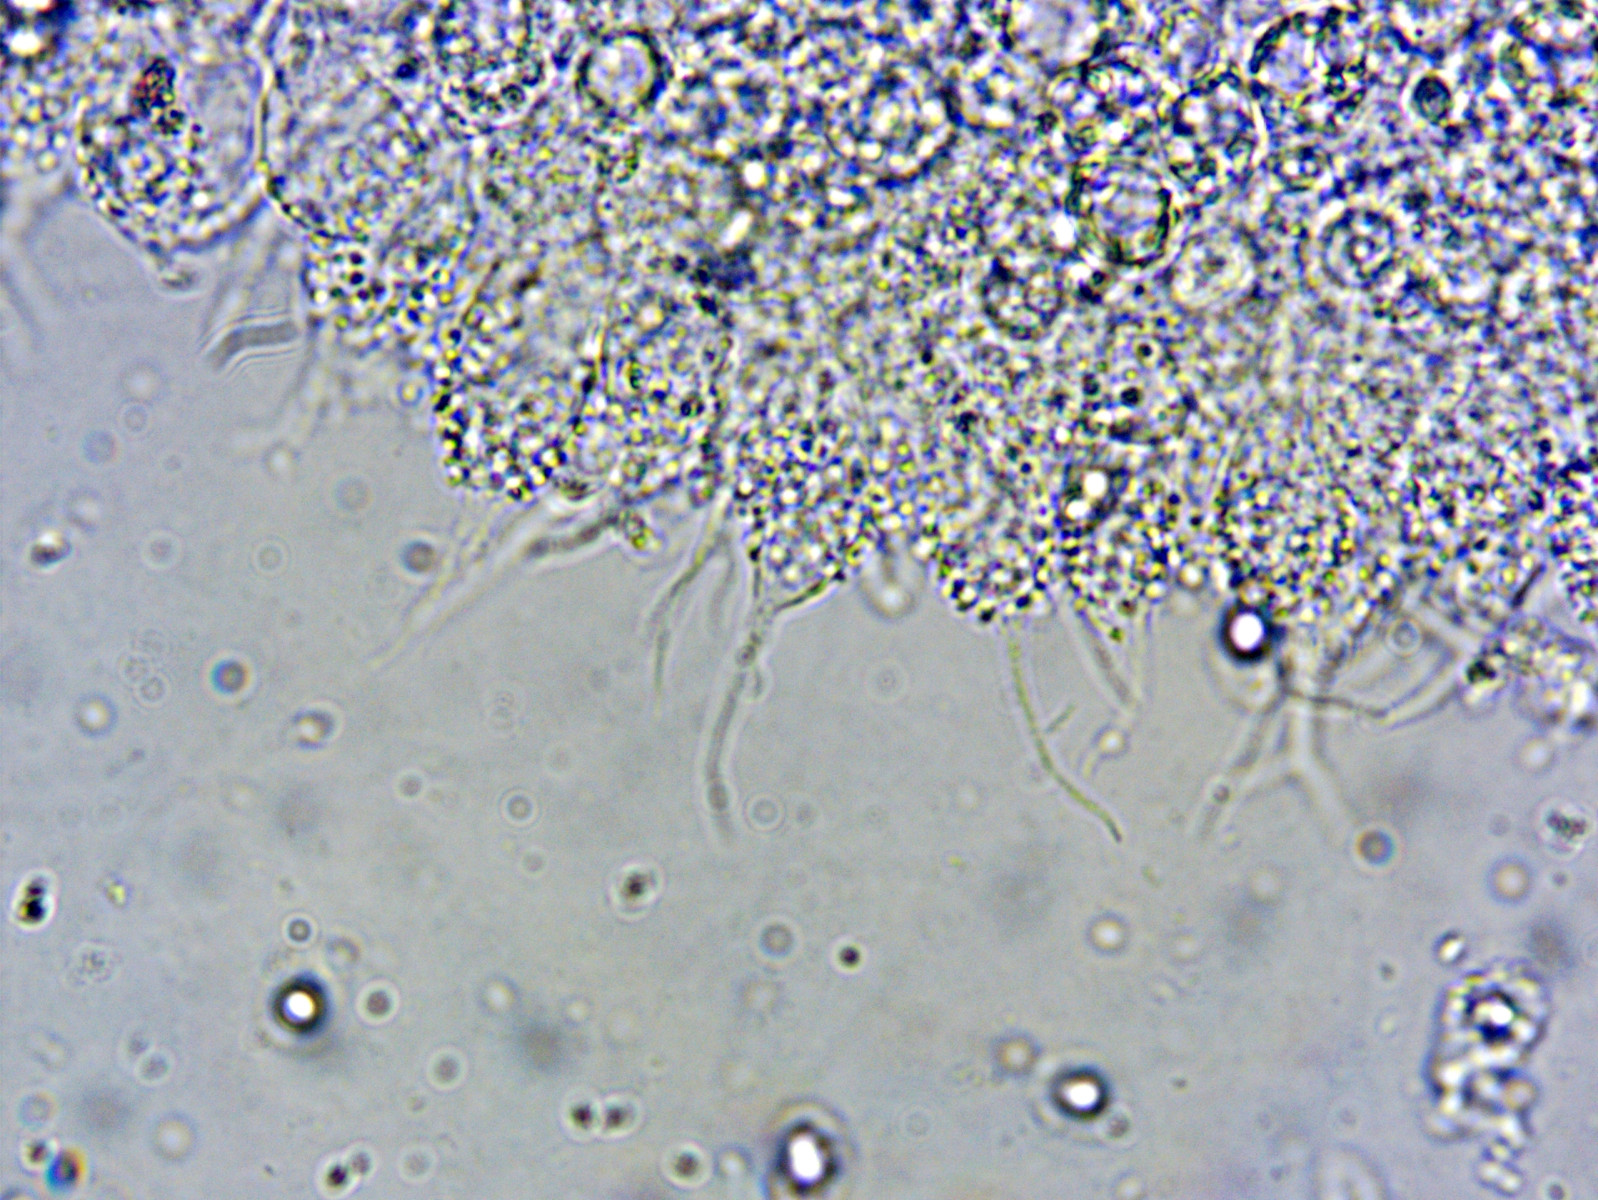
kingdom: Fungi
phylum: Basidiomycota
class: Agaricomycetes
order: Agaricales
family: Mycenaceae
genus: Mycena
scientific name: Mycena tenerrima
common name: pudret huesvamp
